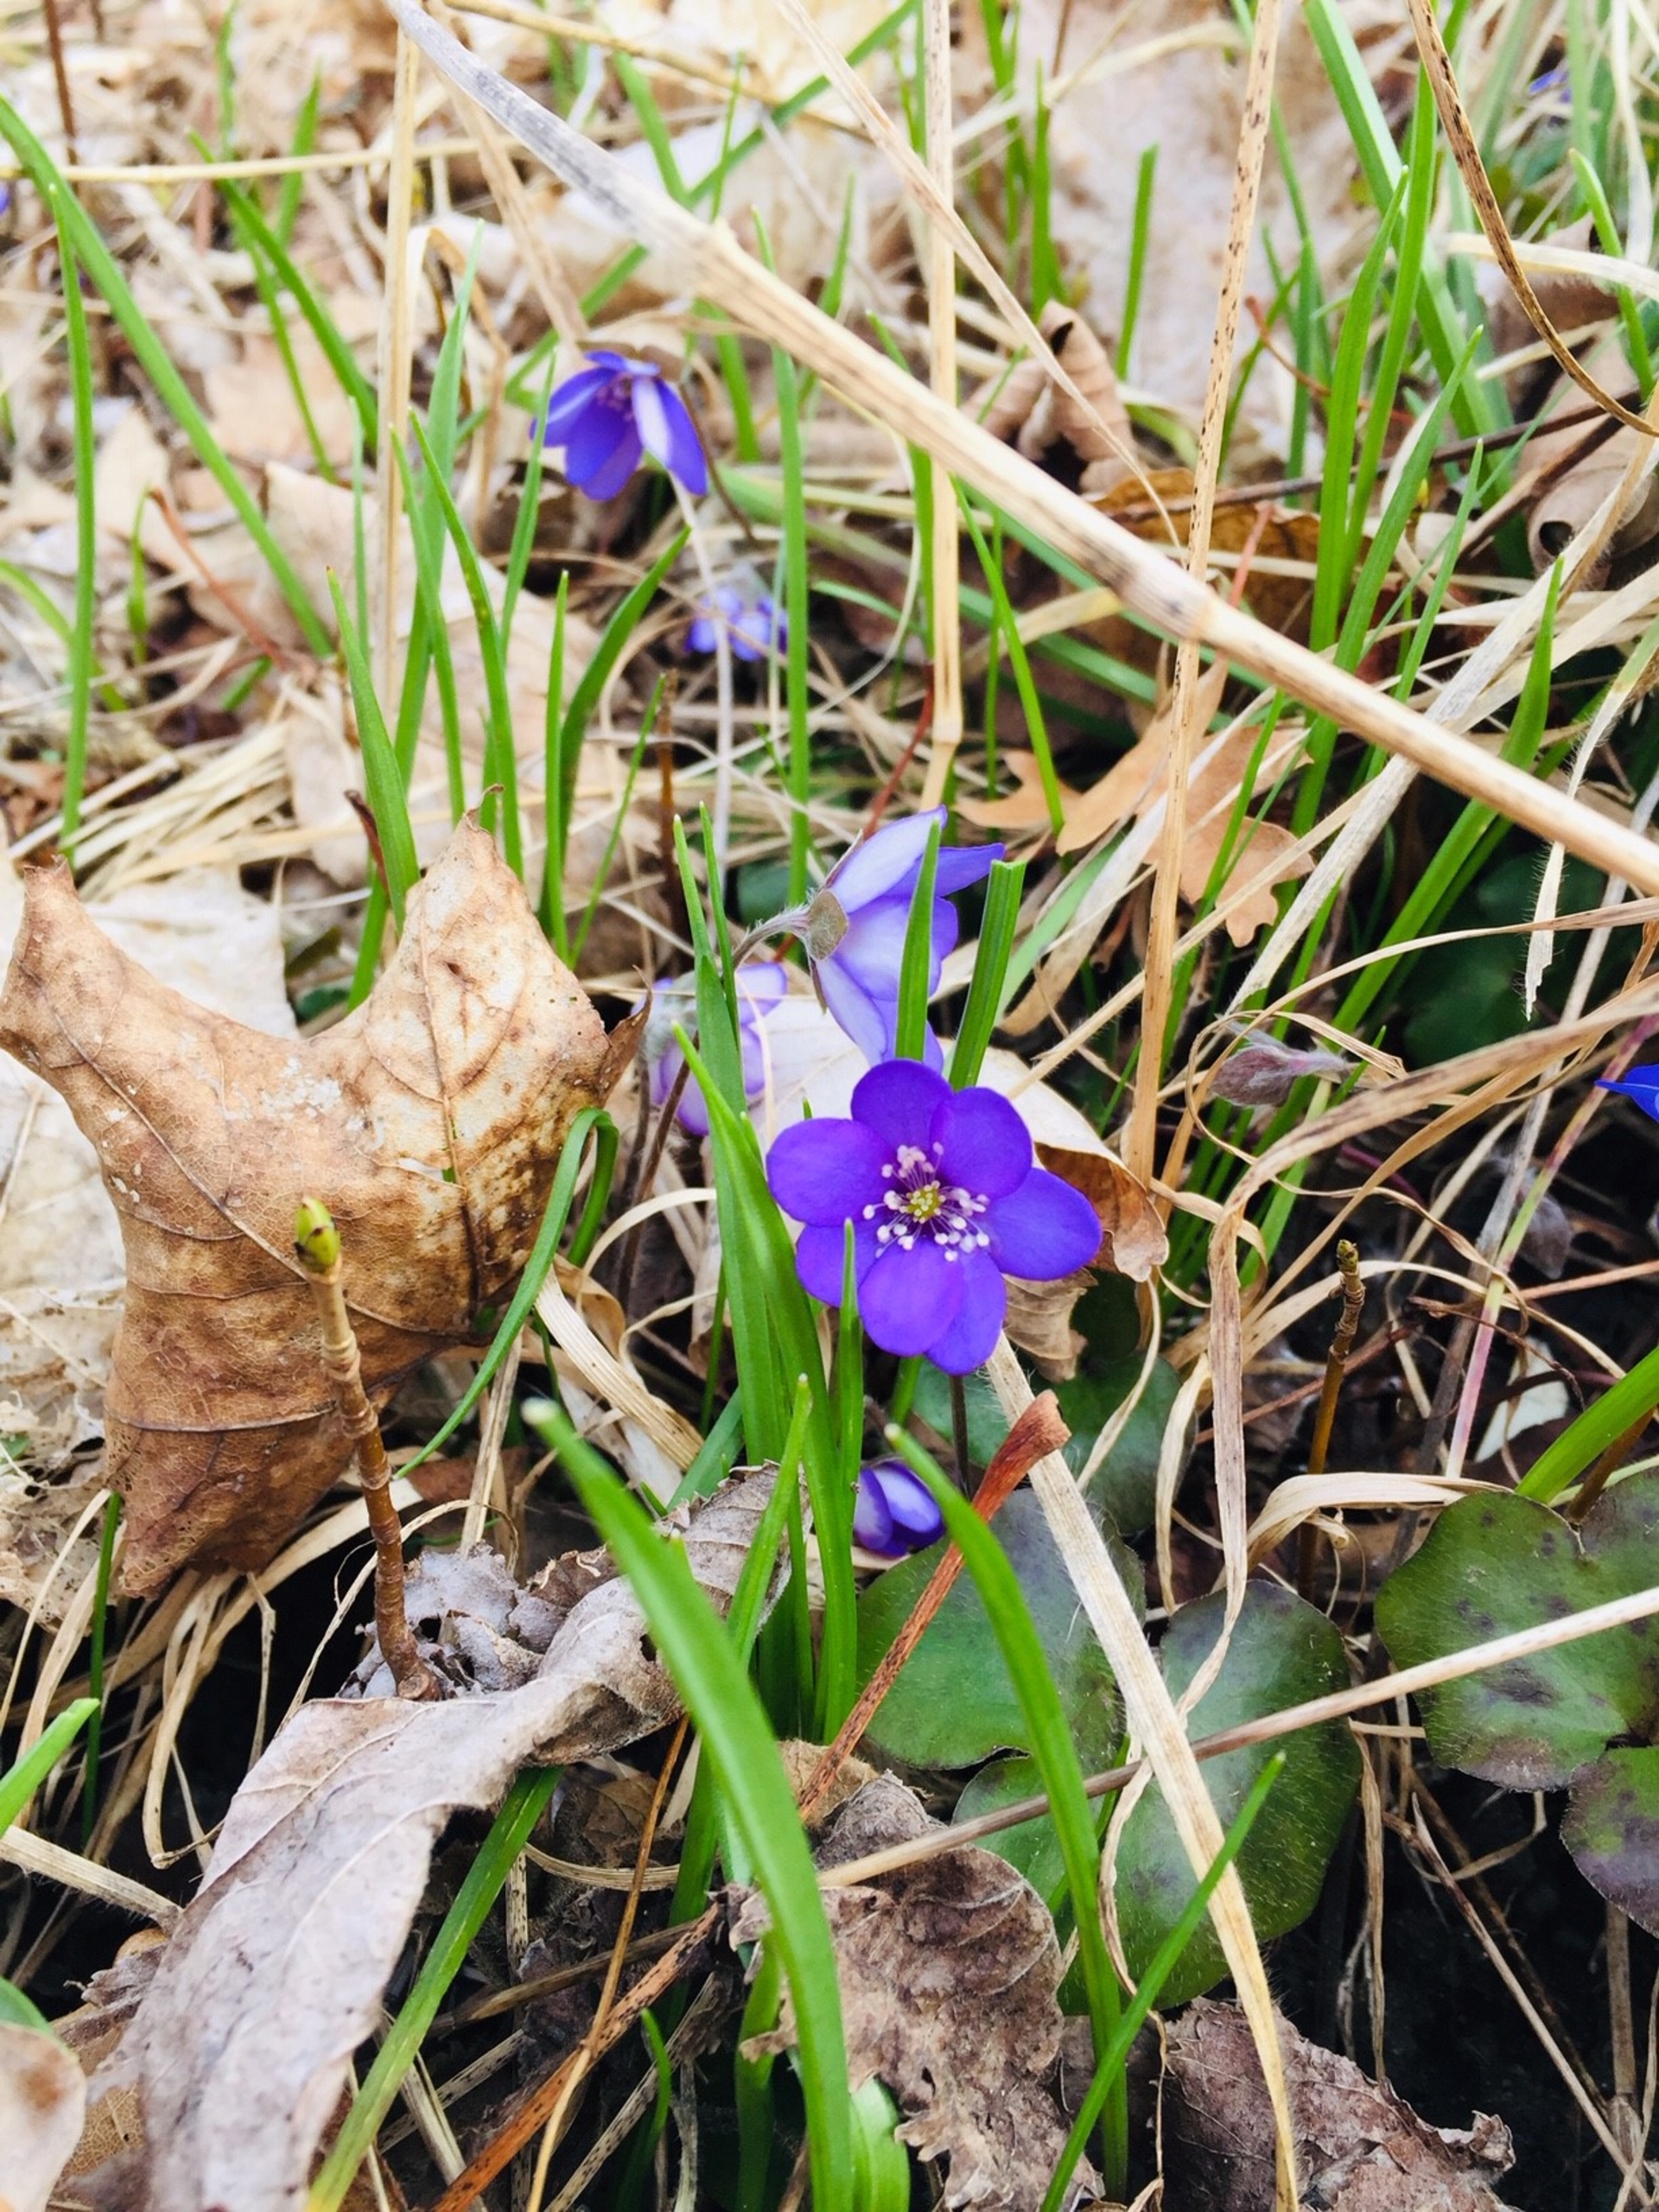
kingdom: Plantae
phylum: Tracheophyta
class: Magnoliopsida
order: Ranunculales
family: Ranunculaceae
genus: Hepatica
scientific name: Hepatica nobilis
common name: Blå anemone
